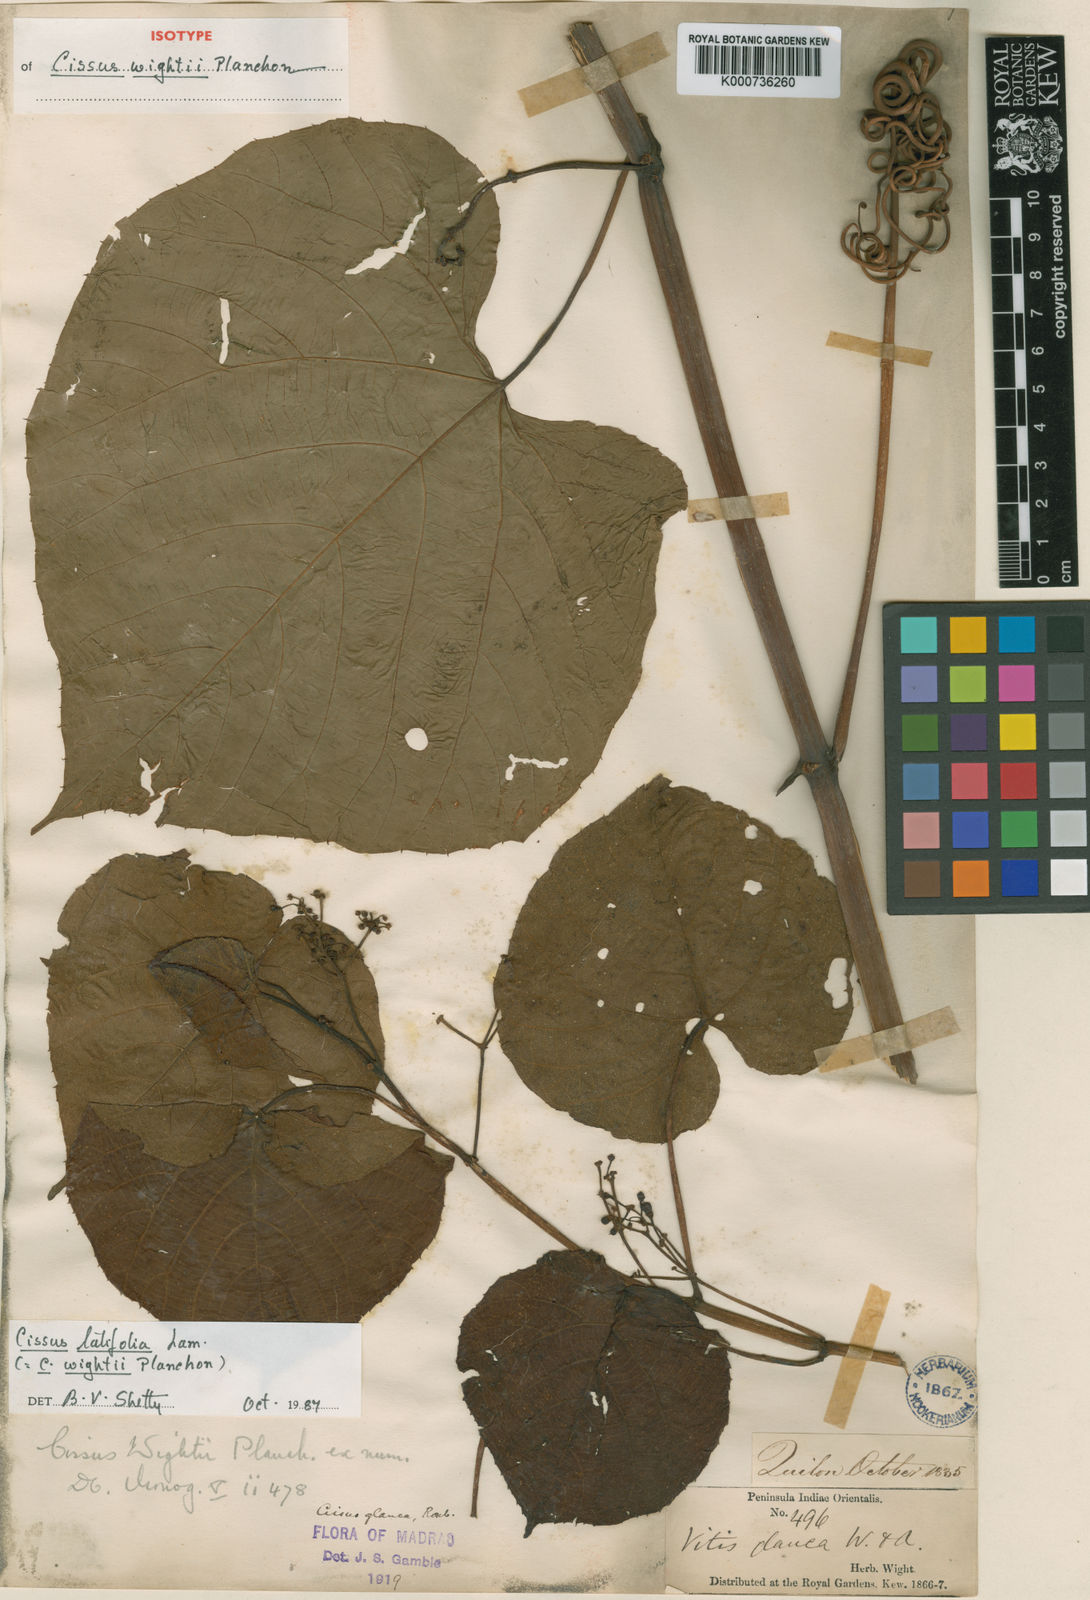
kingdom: Plantae
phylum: Tracheophyta
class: Magnoliopsida
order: Vitales
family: Vitaceae
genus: Cissus
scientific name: Cissus latifolia
